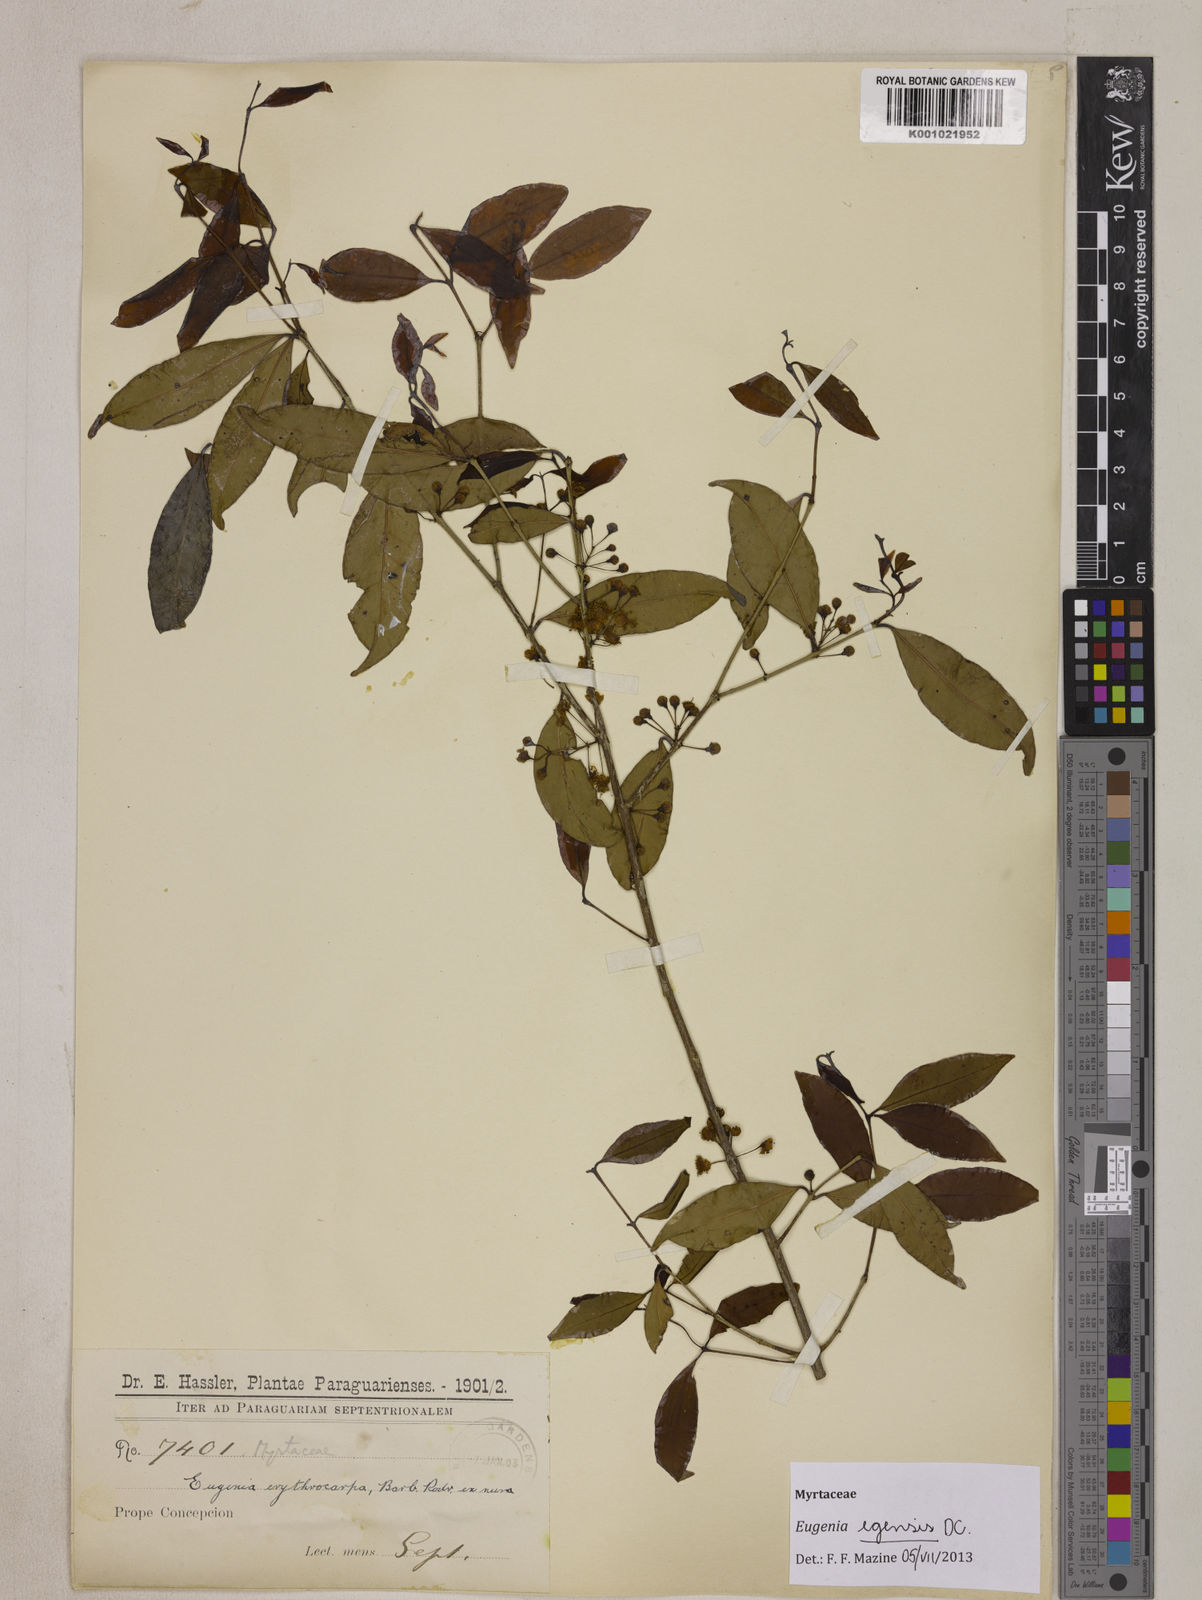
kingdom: Plantae
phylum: Tracheophyta
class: Magnoliopsida
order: Myrtales
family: Myrtaceae
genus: Eugenia
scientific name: Eugenia egensis
